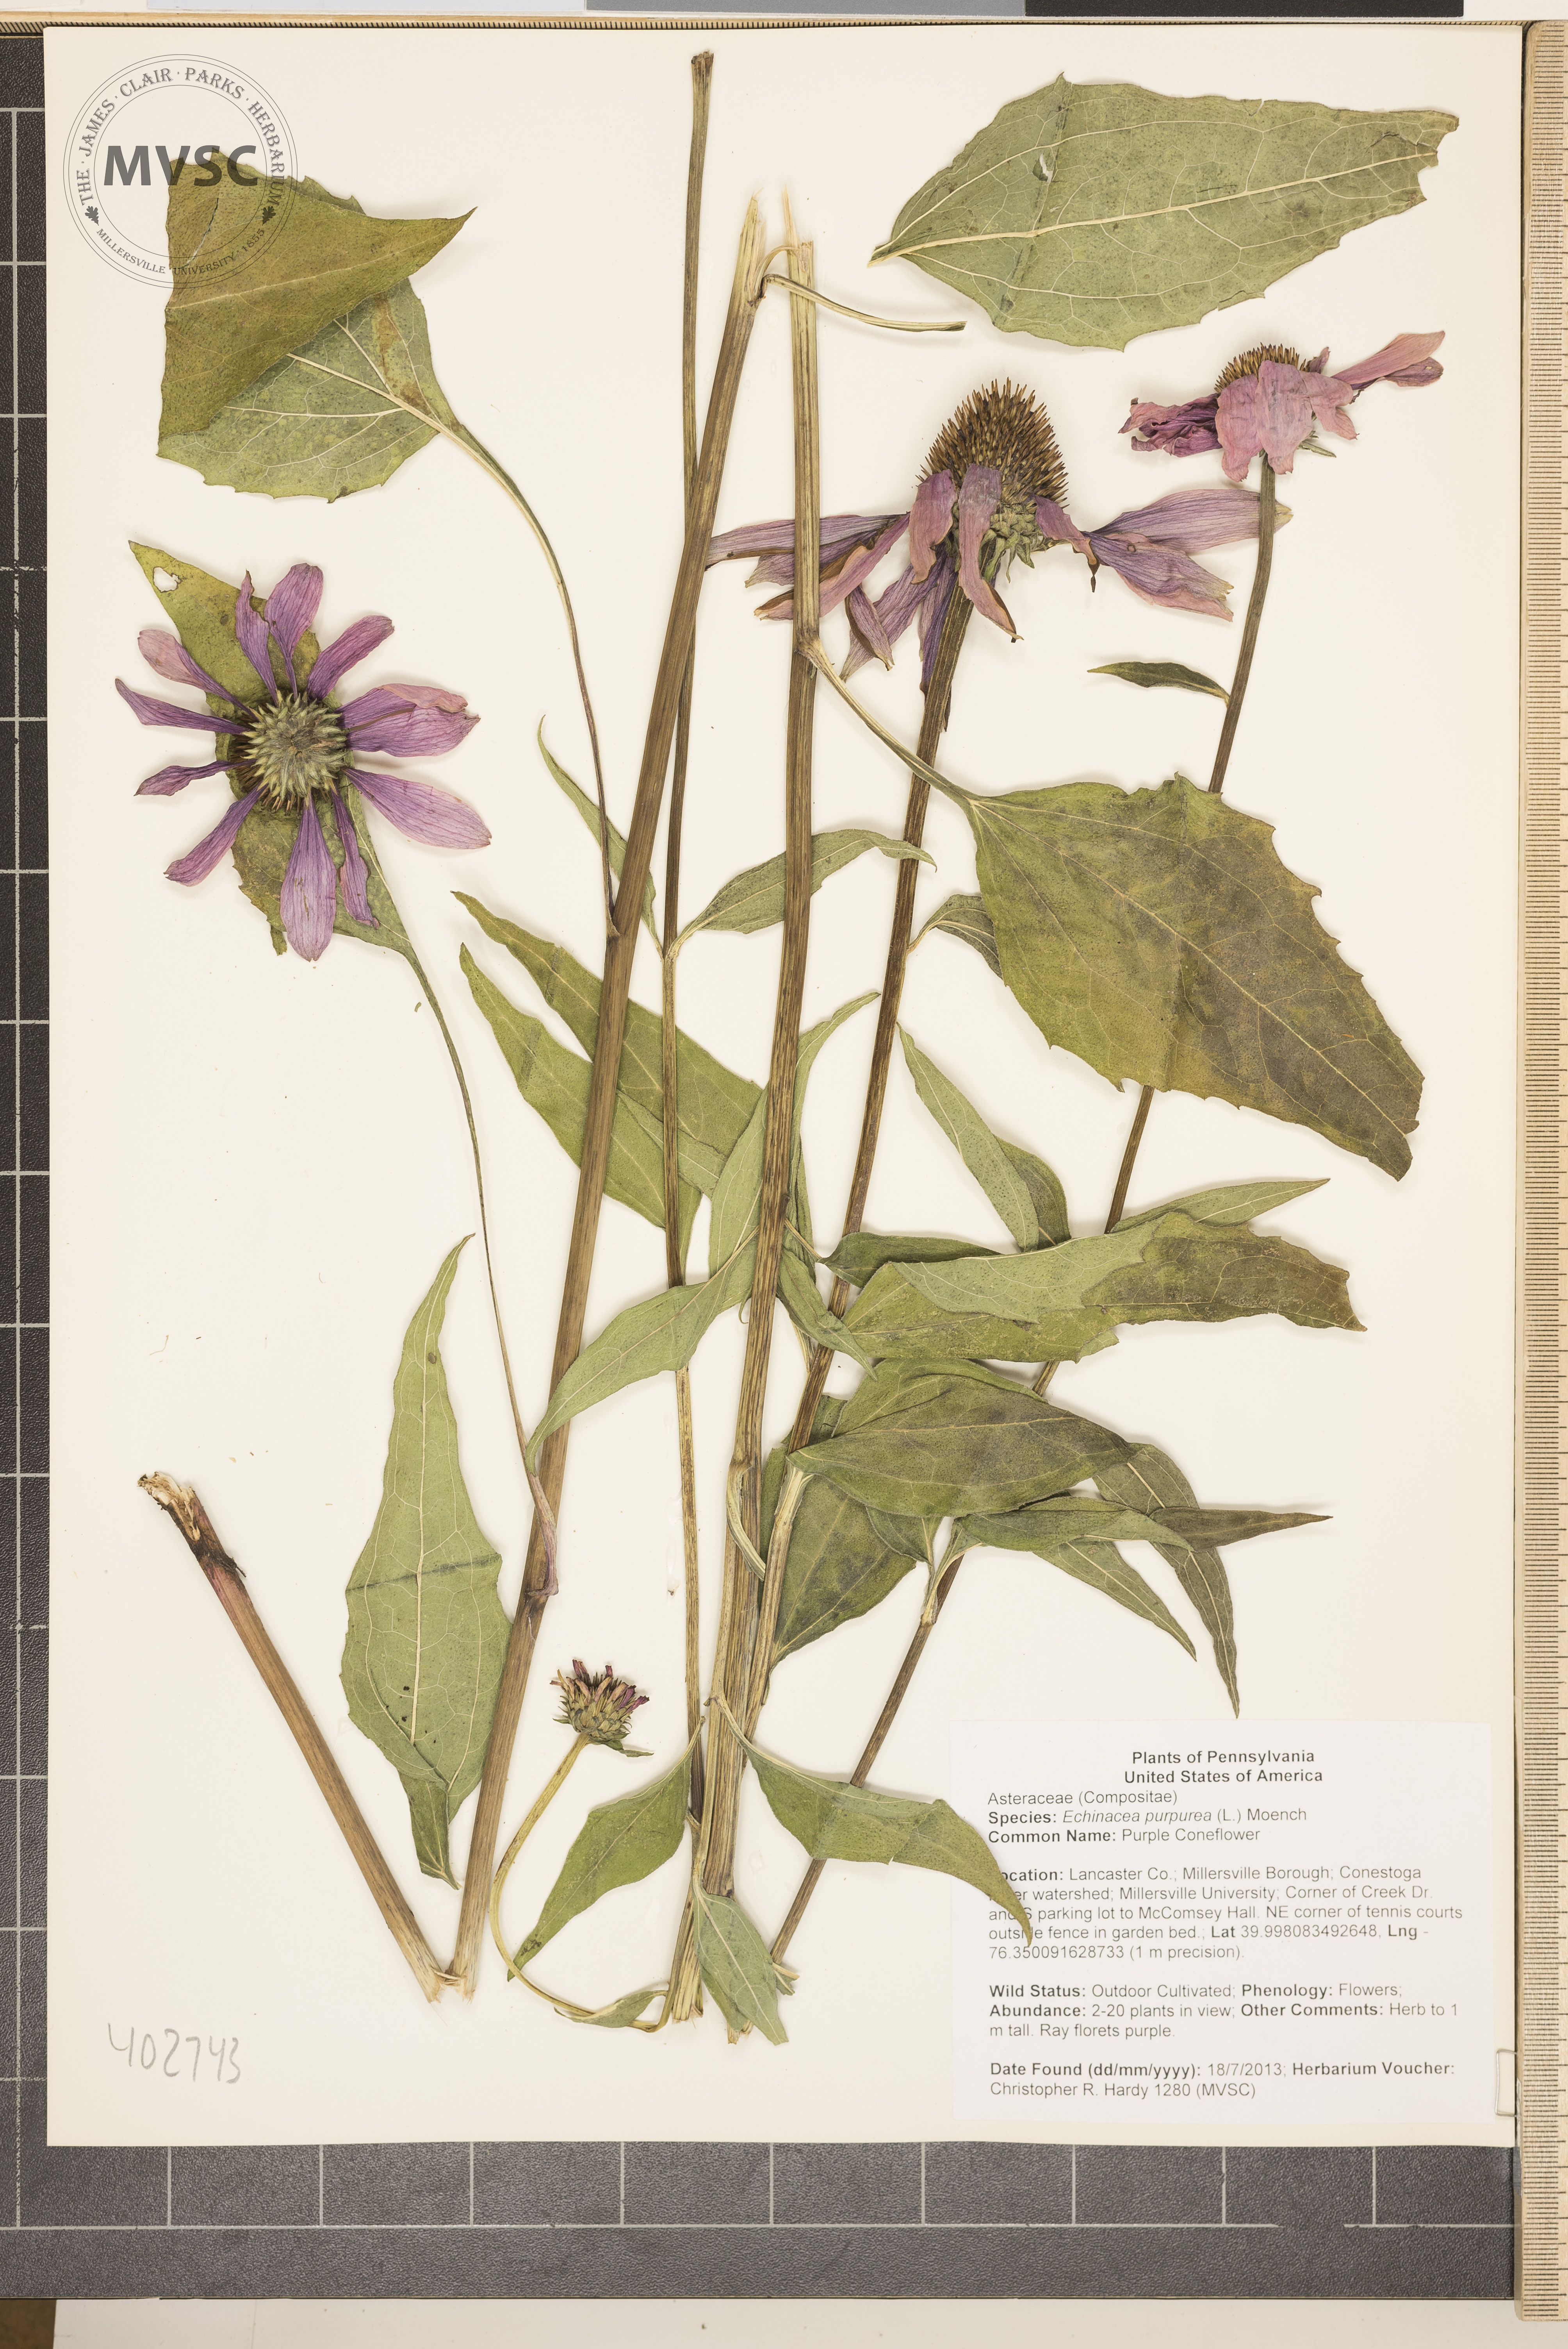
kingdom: Plantae
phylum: Tracheophyta
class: Magnoliopsida
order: Asterales
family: Asteraceae
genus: Echinacea
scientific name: Echinacea purpurea
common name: Purple Coneflower
